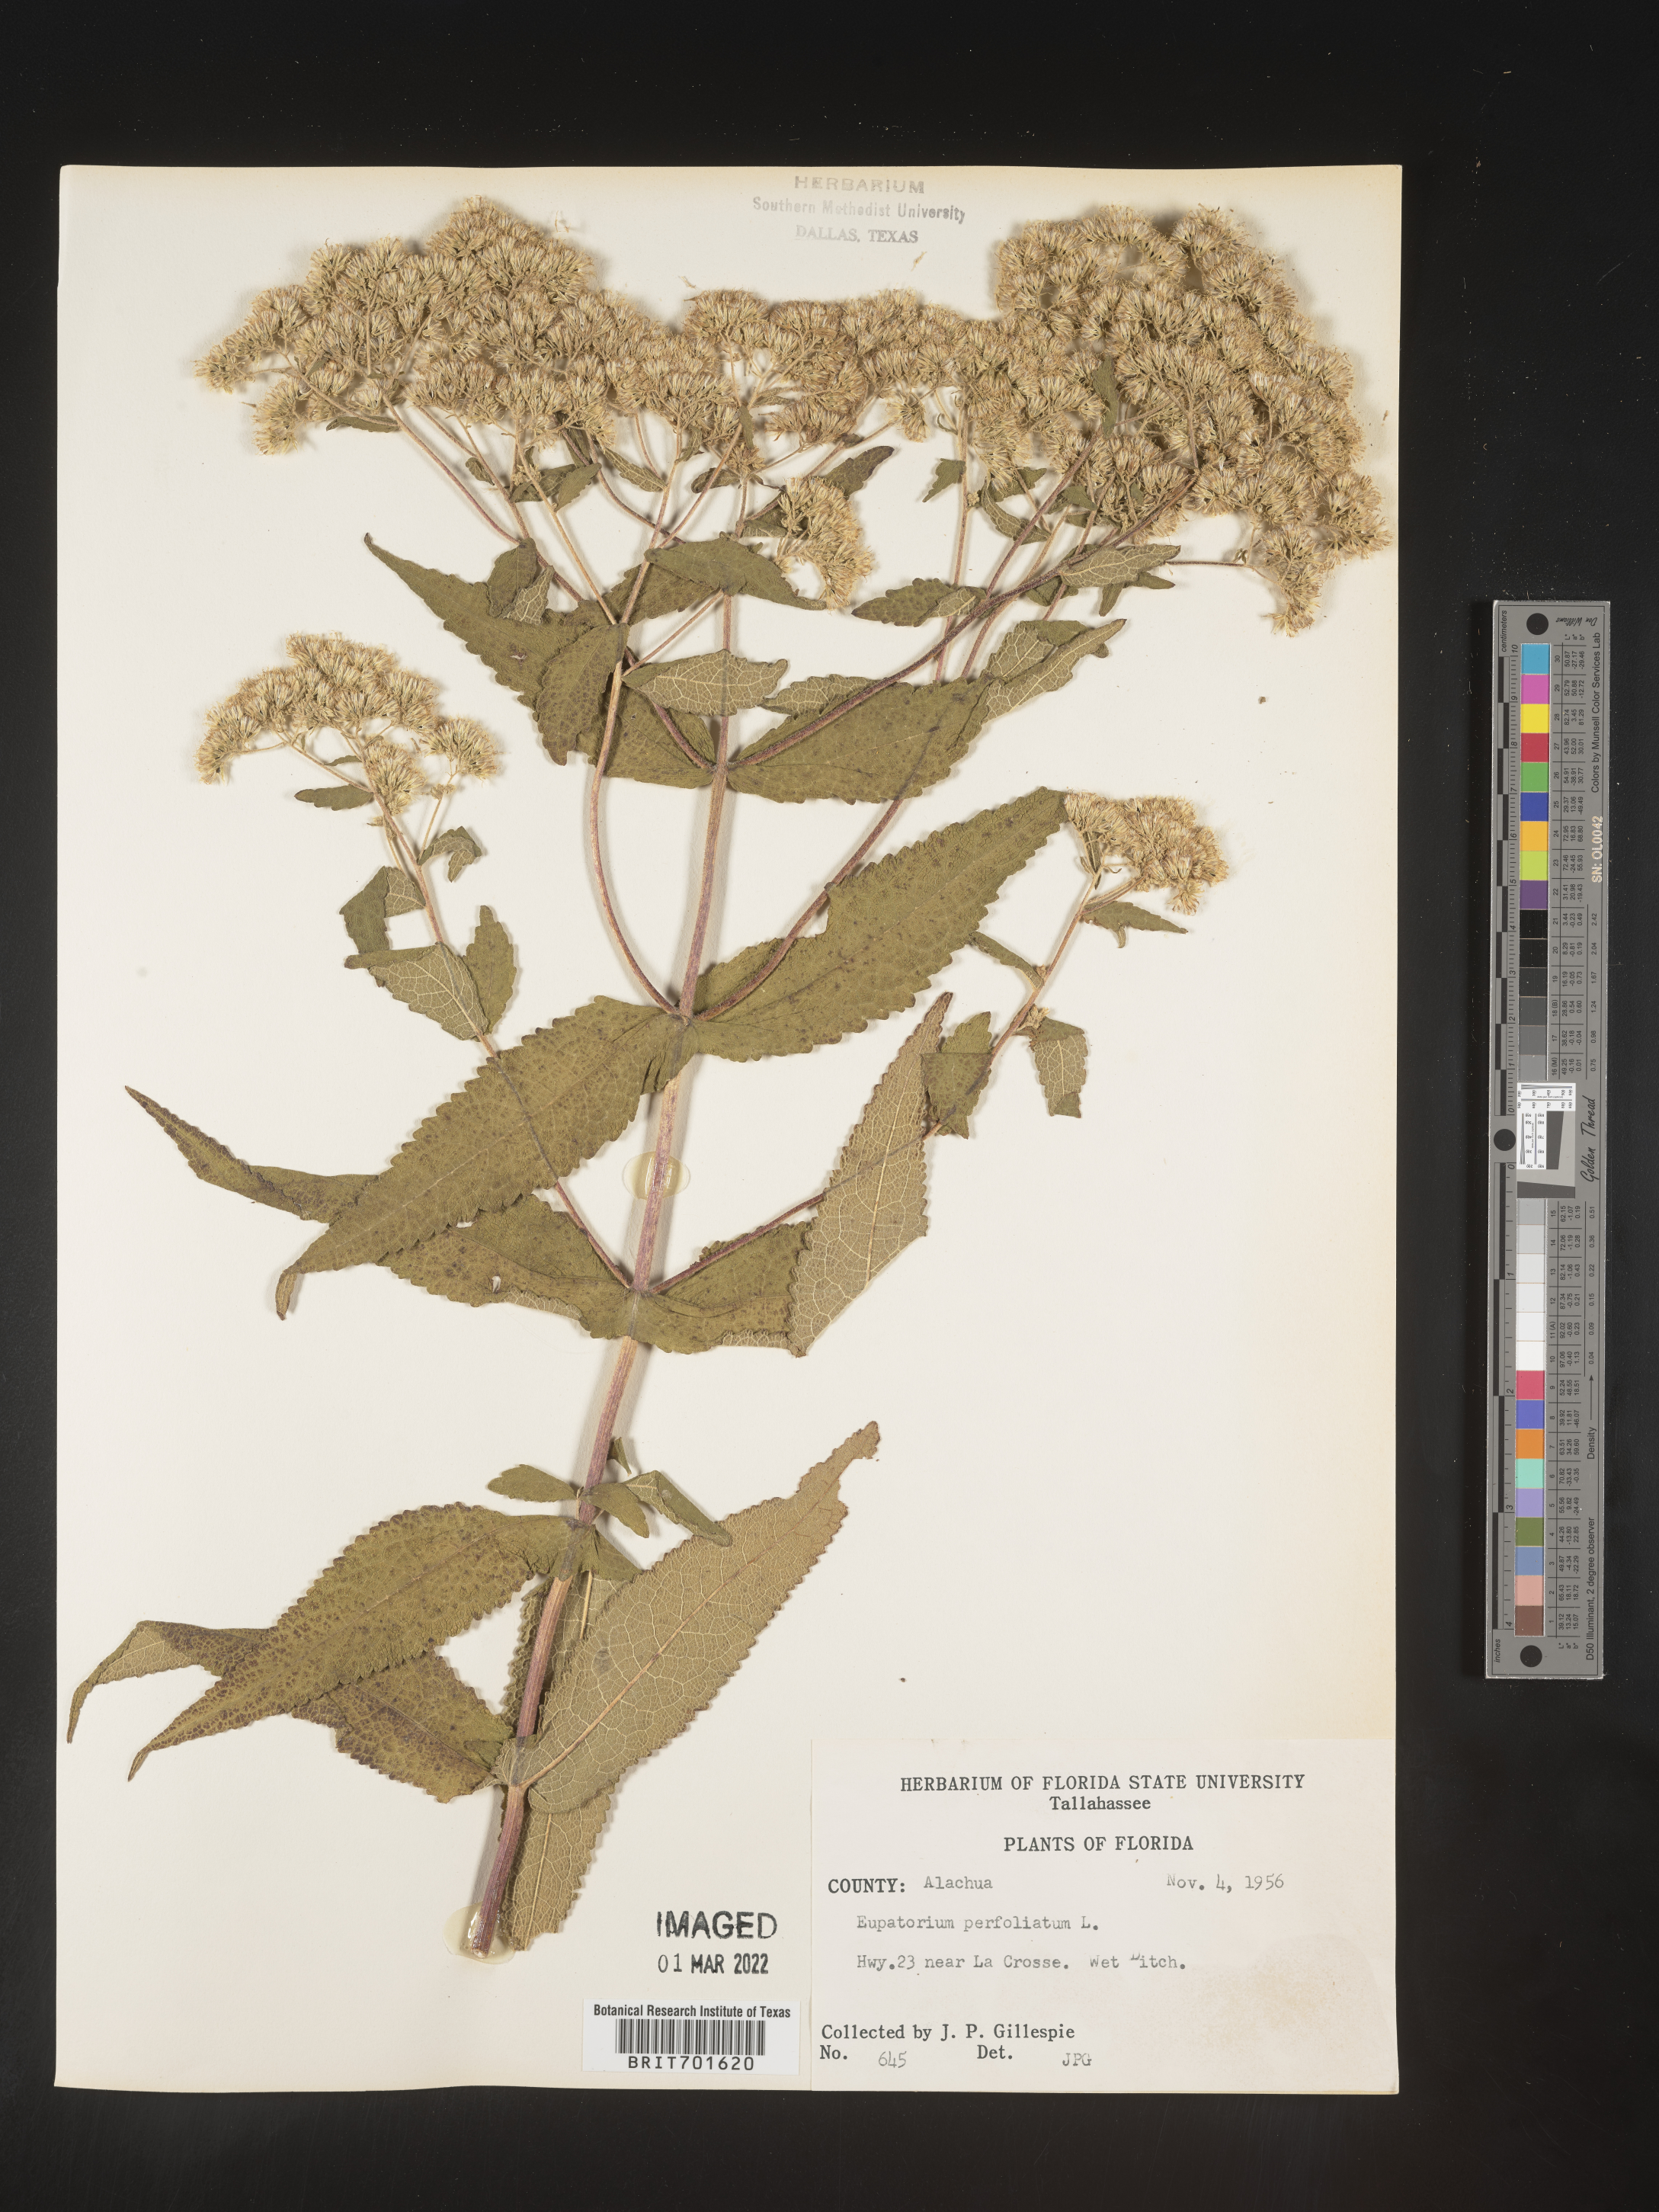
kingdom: Plantae
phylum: Tracheophyta
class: Magnoliopsida
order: Asterales
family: Asteraceae
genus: Eupatorium
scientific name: Eupatorium perfoliatum
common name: Boneset
